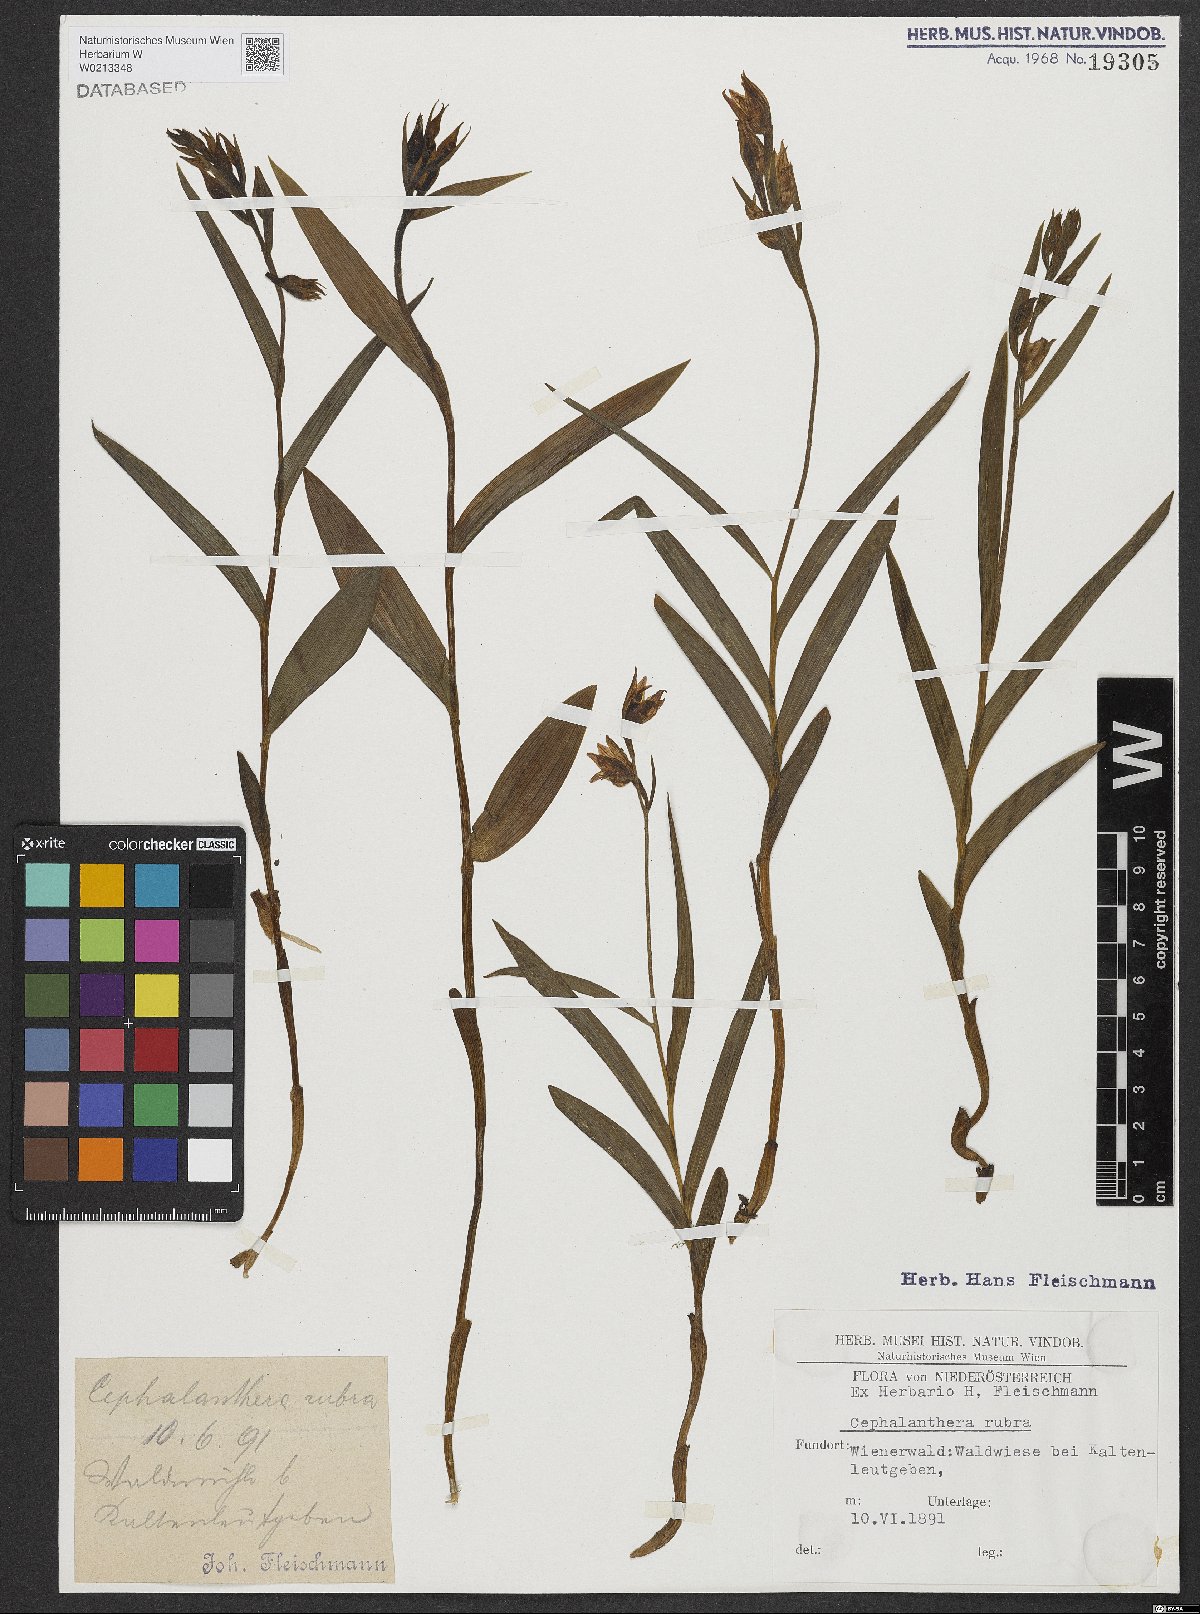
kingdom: Plantae
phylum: Tracheophyta
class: Liliopsida
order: Asparagales
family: Orchidaceae
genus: Cephalanthera
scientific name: Cephalanthera rubra
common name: Red helleborine
